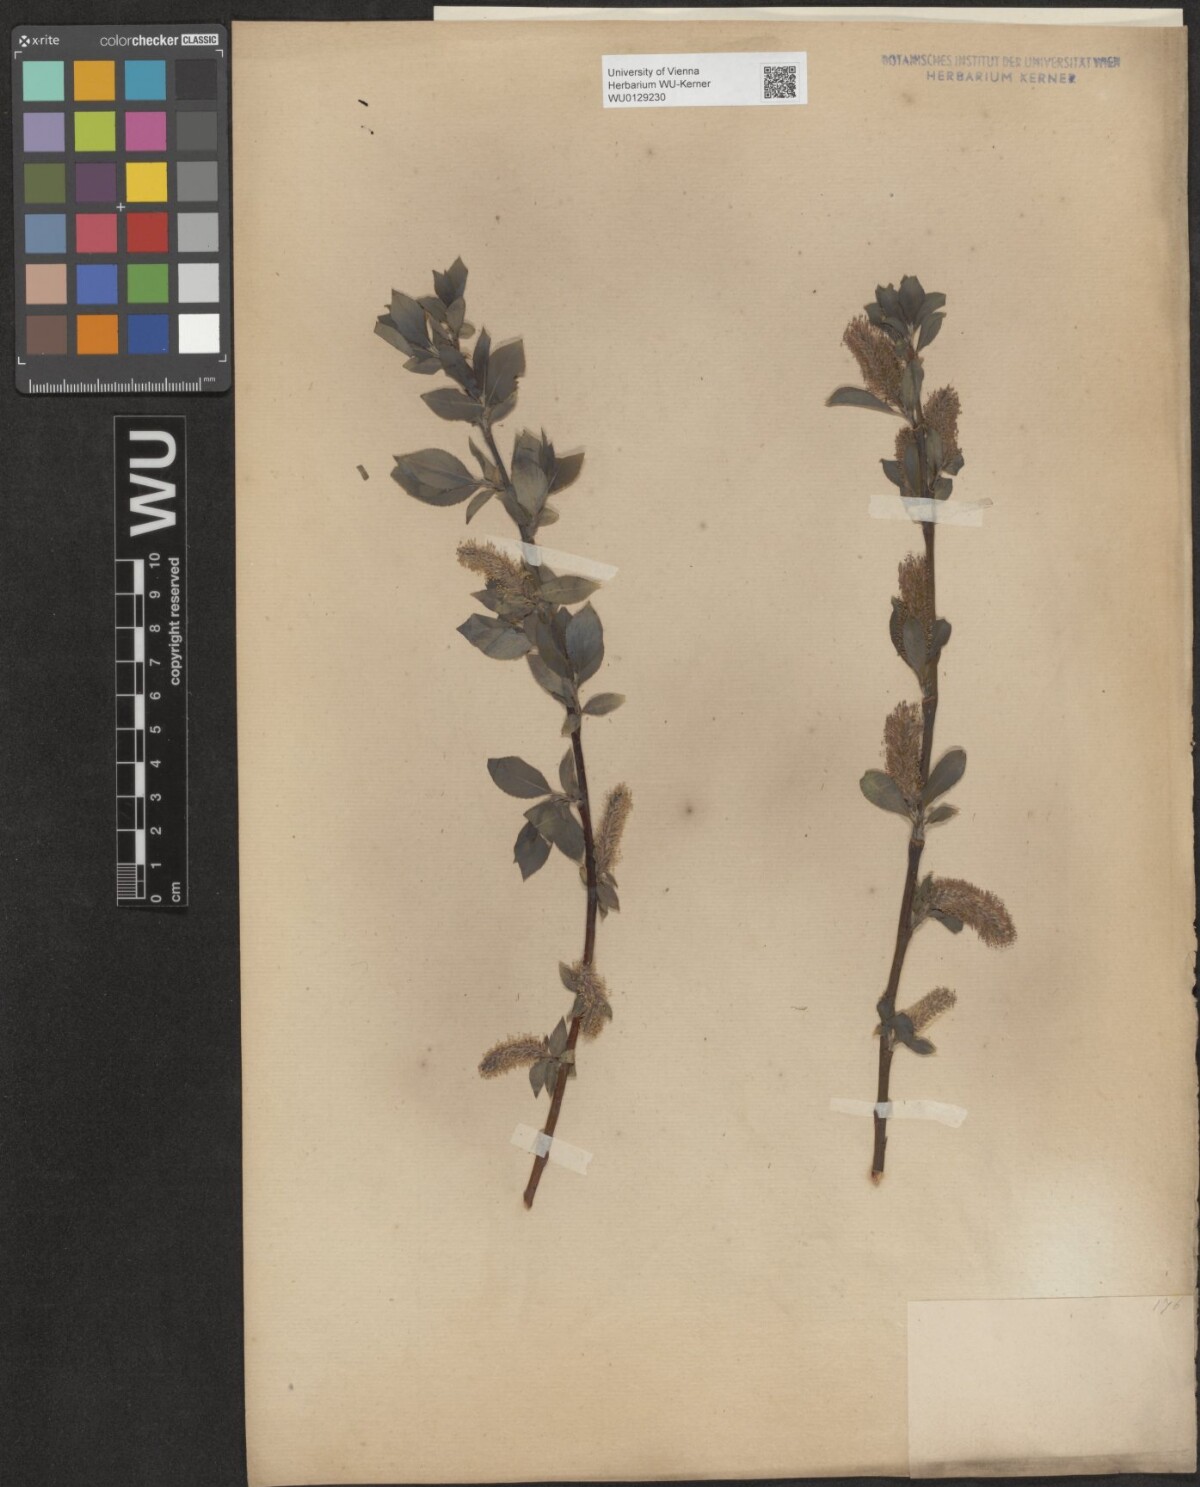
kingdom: Plantae
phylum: Tracheophyta
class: Magnoliopsida
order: Malpighiales
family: Salicaceae
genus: Salix
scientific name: Salix glabra
